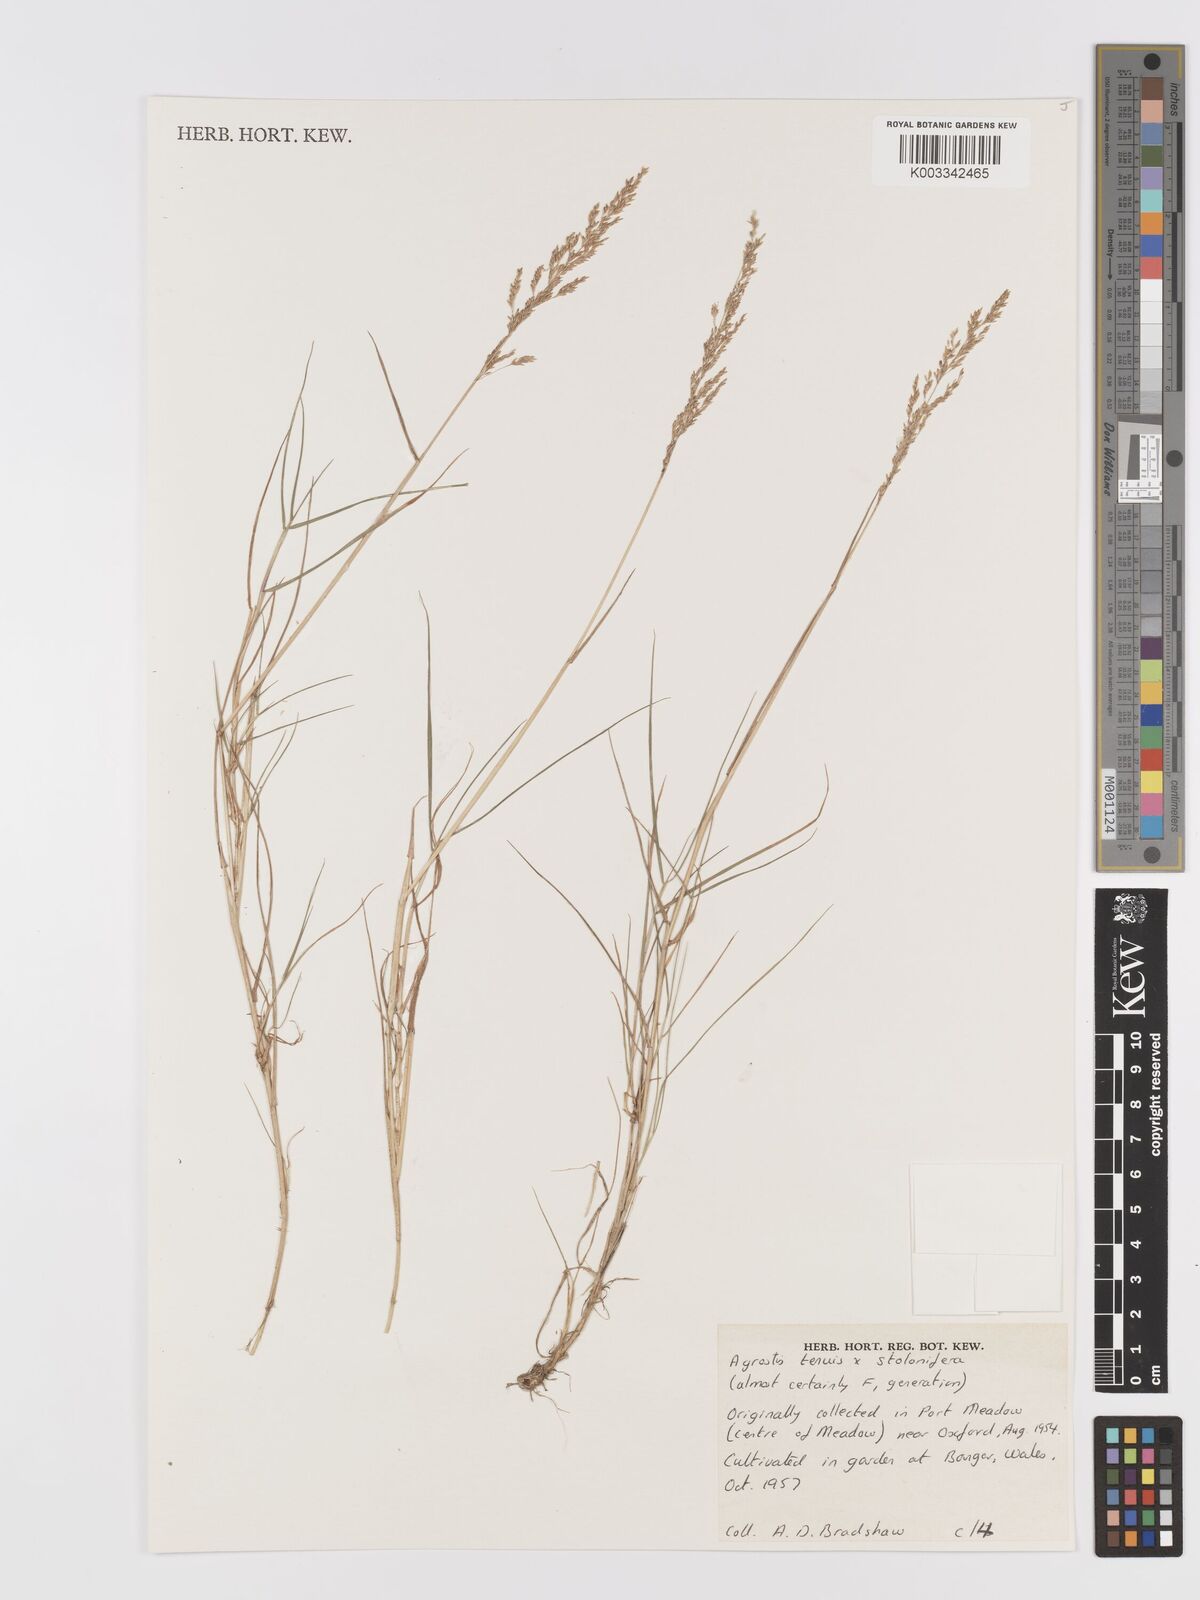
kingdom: Plantae
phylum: Tracheophyta
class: Liliopsida
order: Poales
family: Poaceae
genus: Agrostis
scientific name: Agrostis capillaris
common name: Colonial bentgrass
